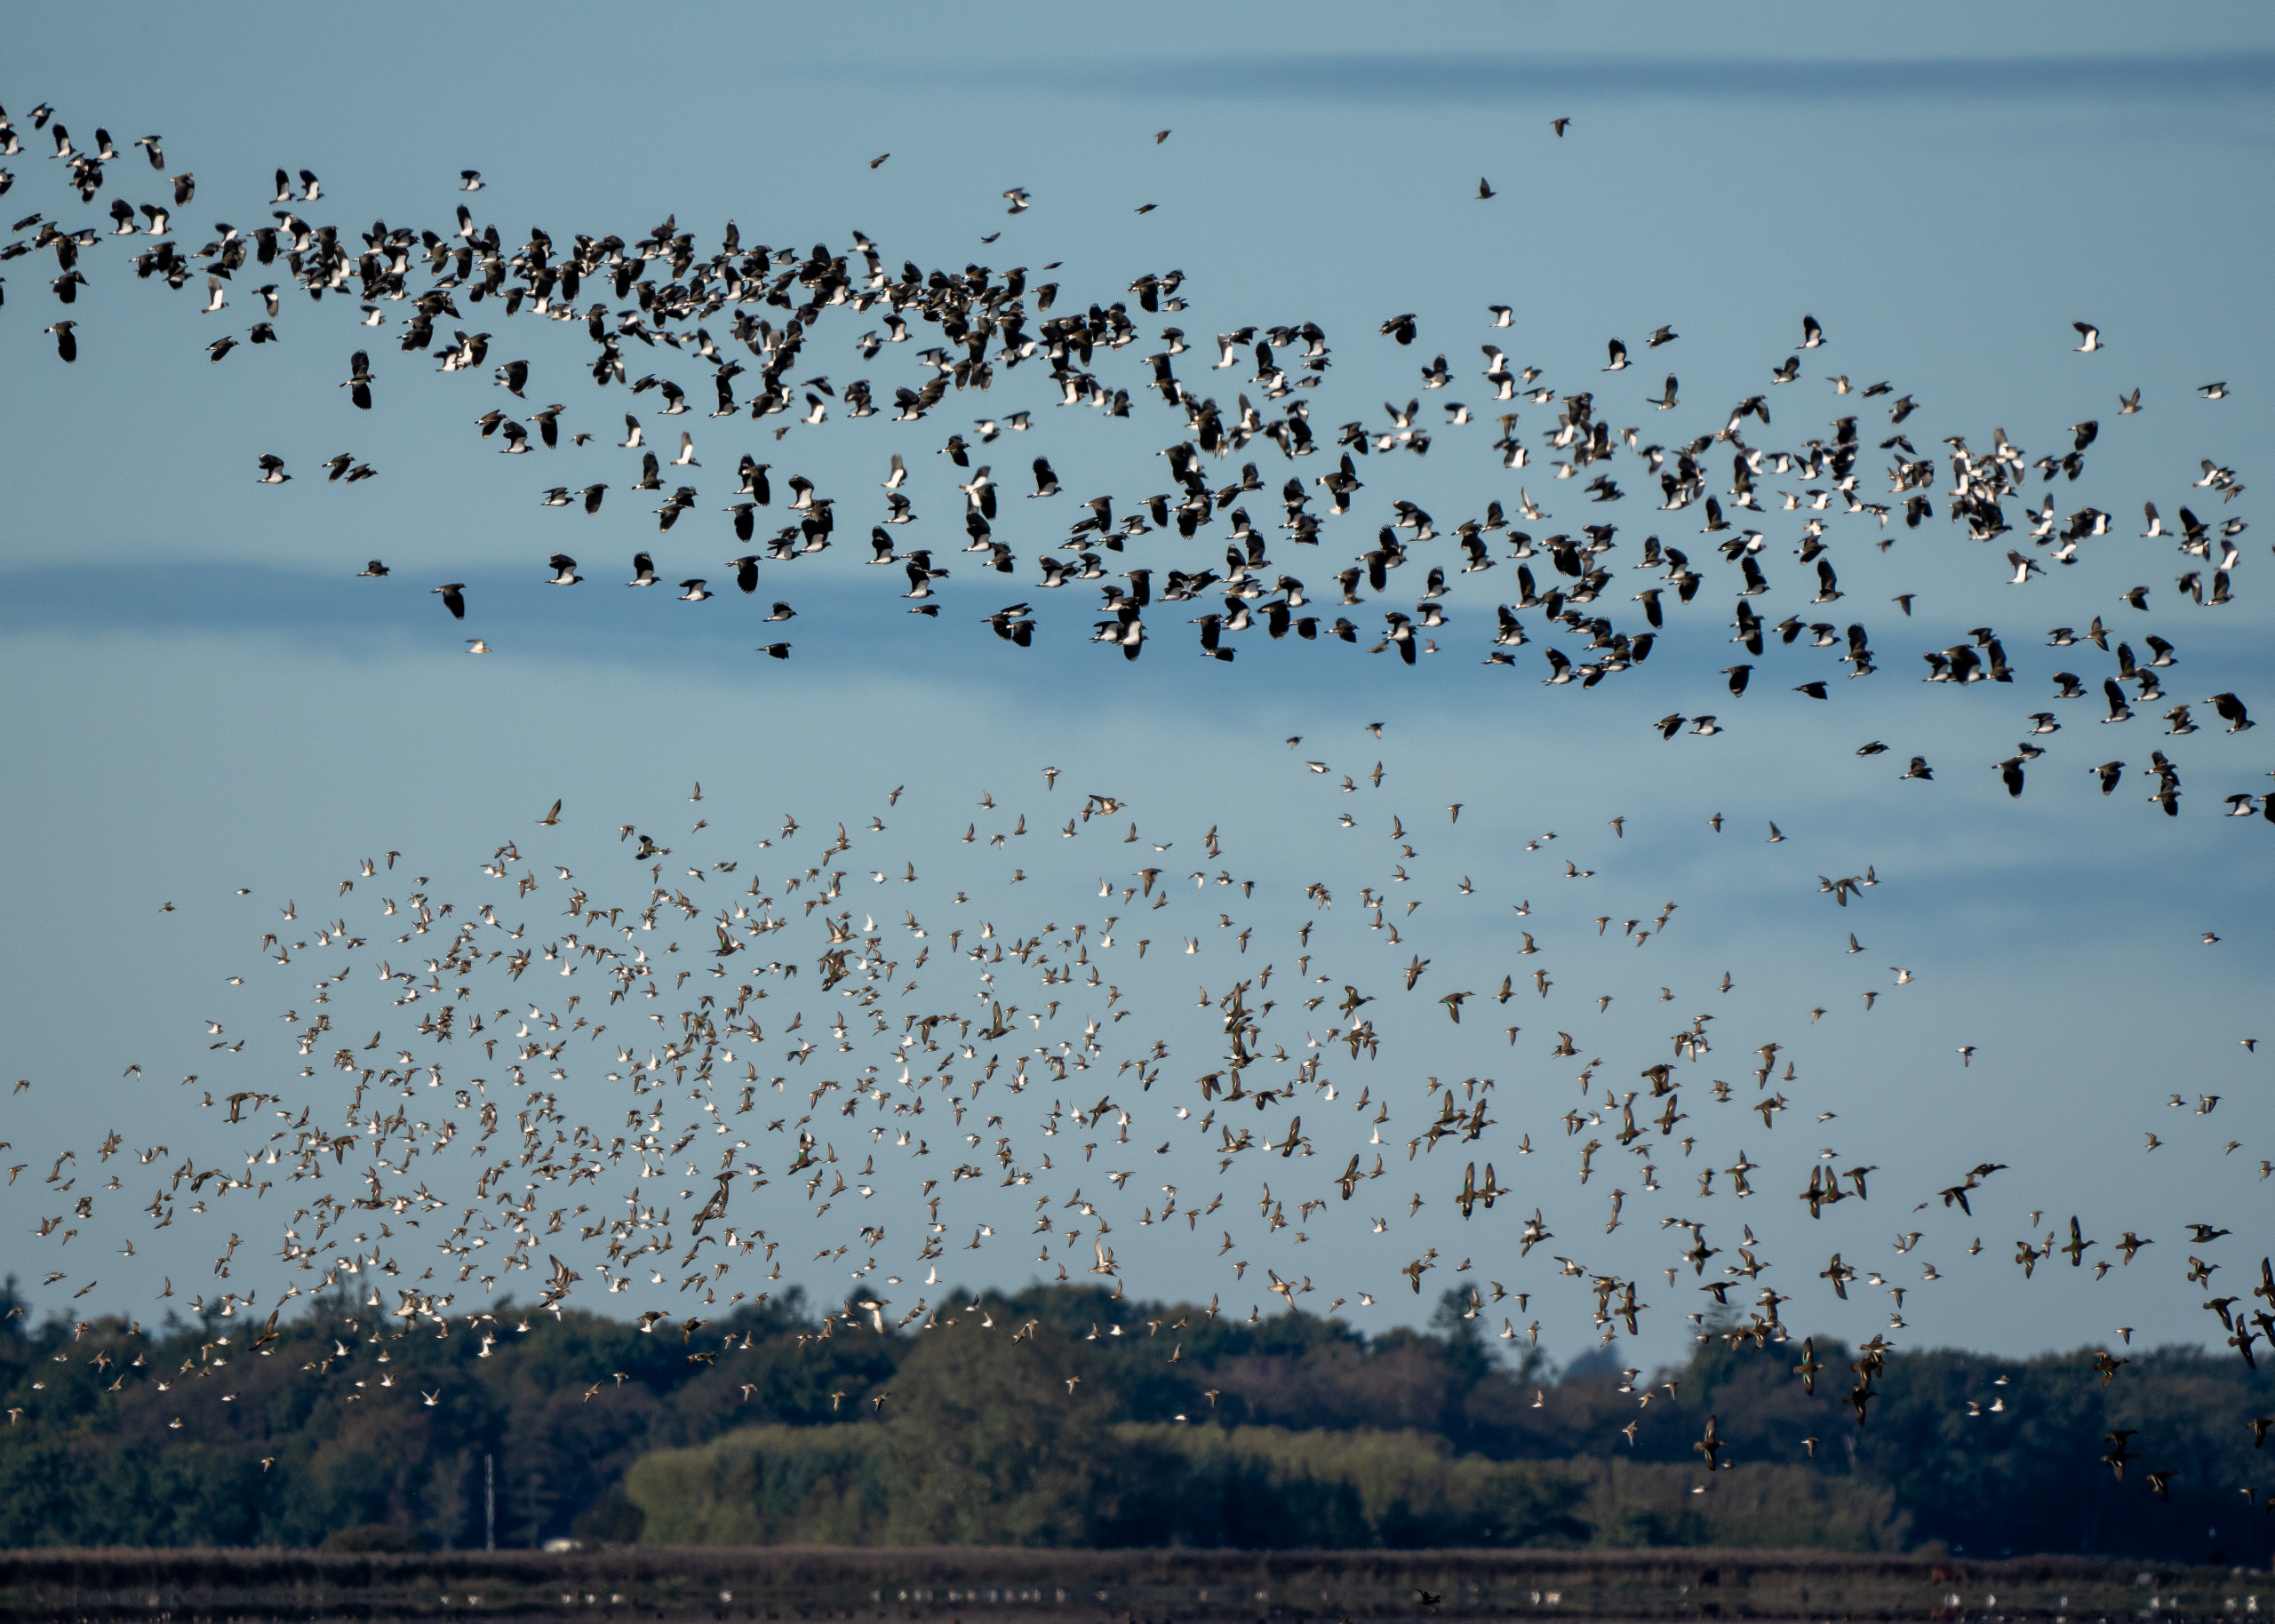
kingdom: Animalia
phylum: Chordata
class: Aves
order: Charadriiformes
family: Charadriidae
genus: Vanellus
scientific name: Vanellus vanellus
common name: Vibe
